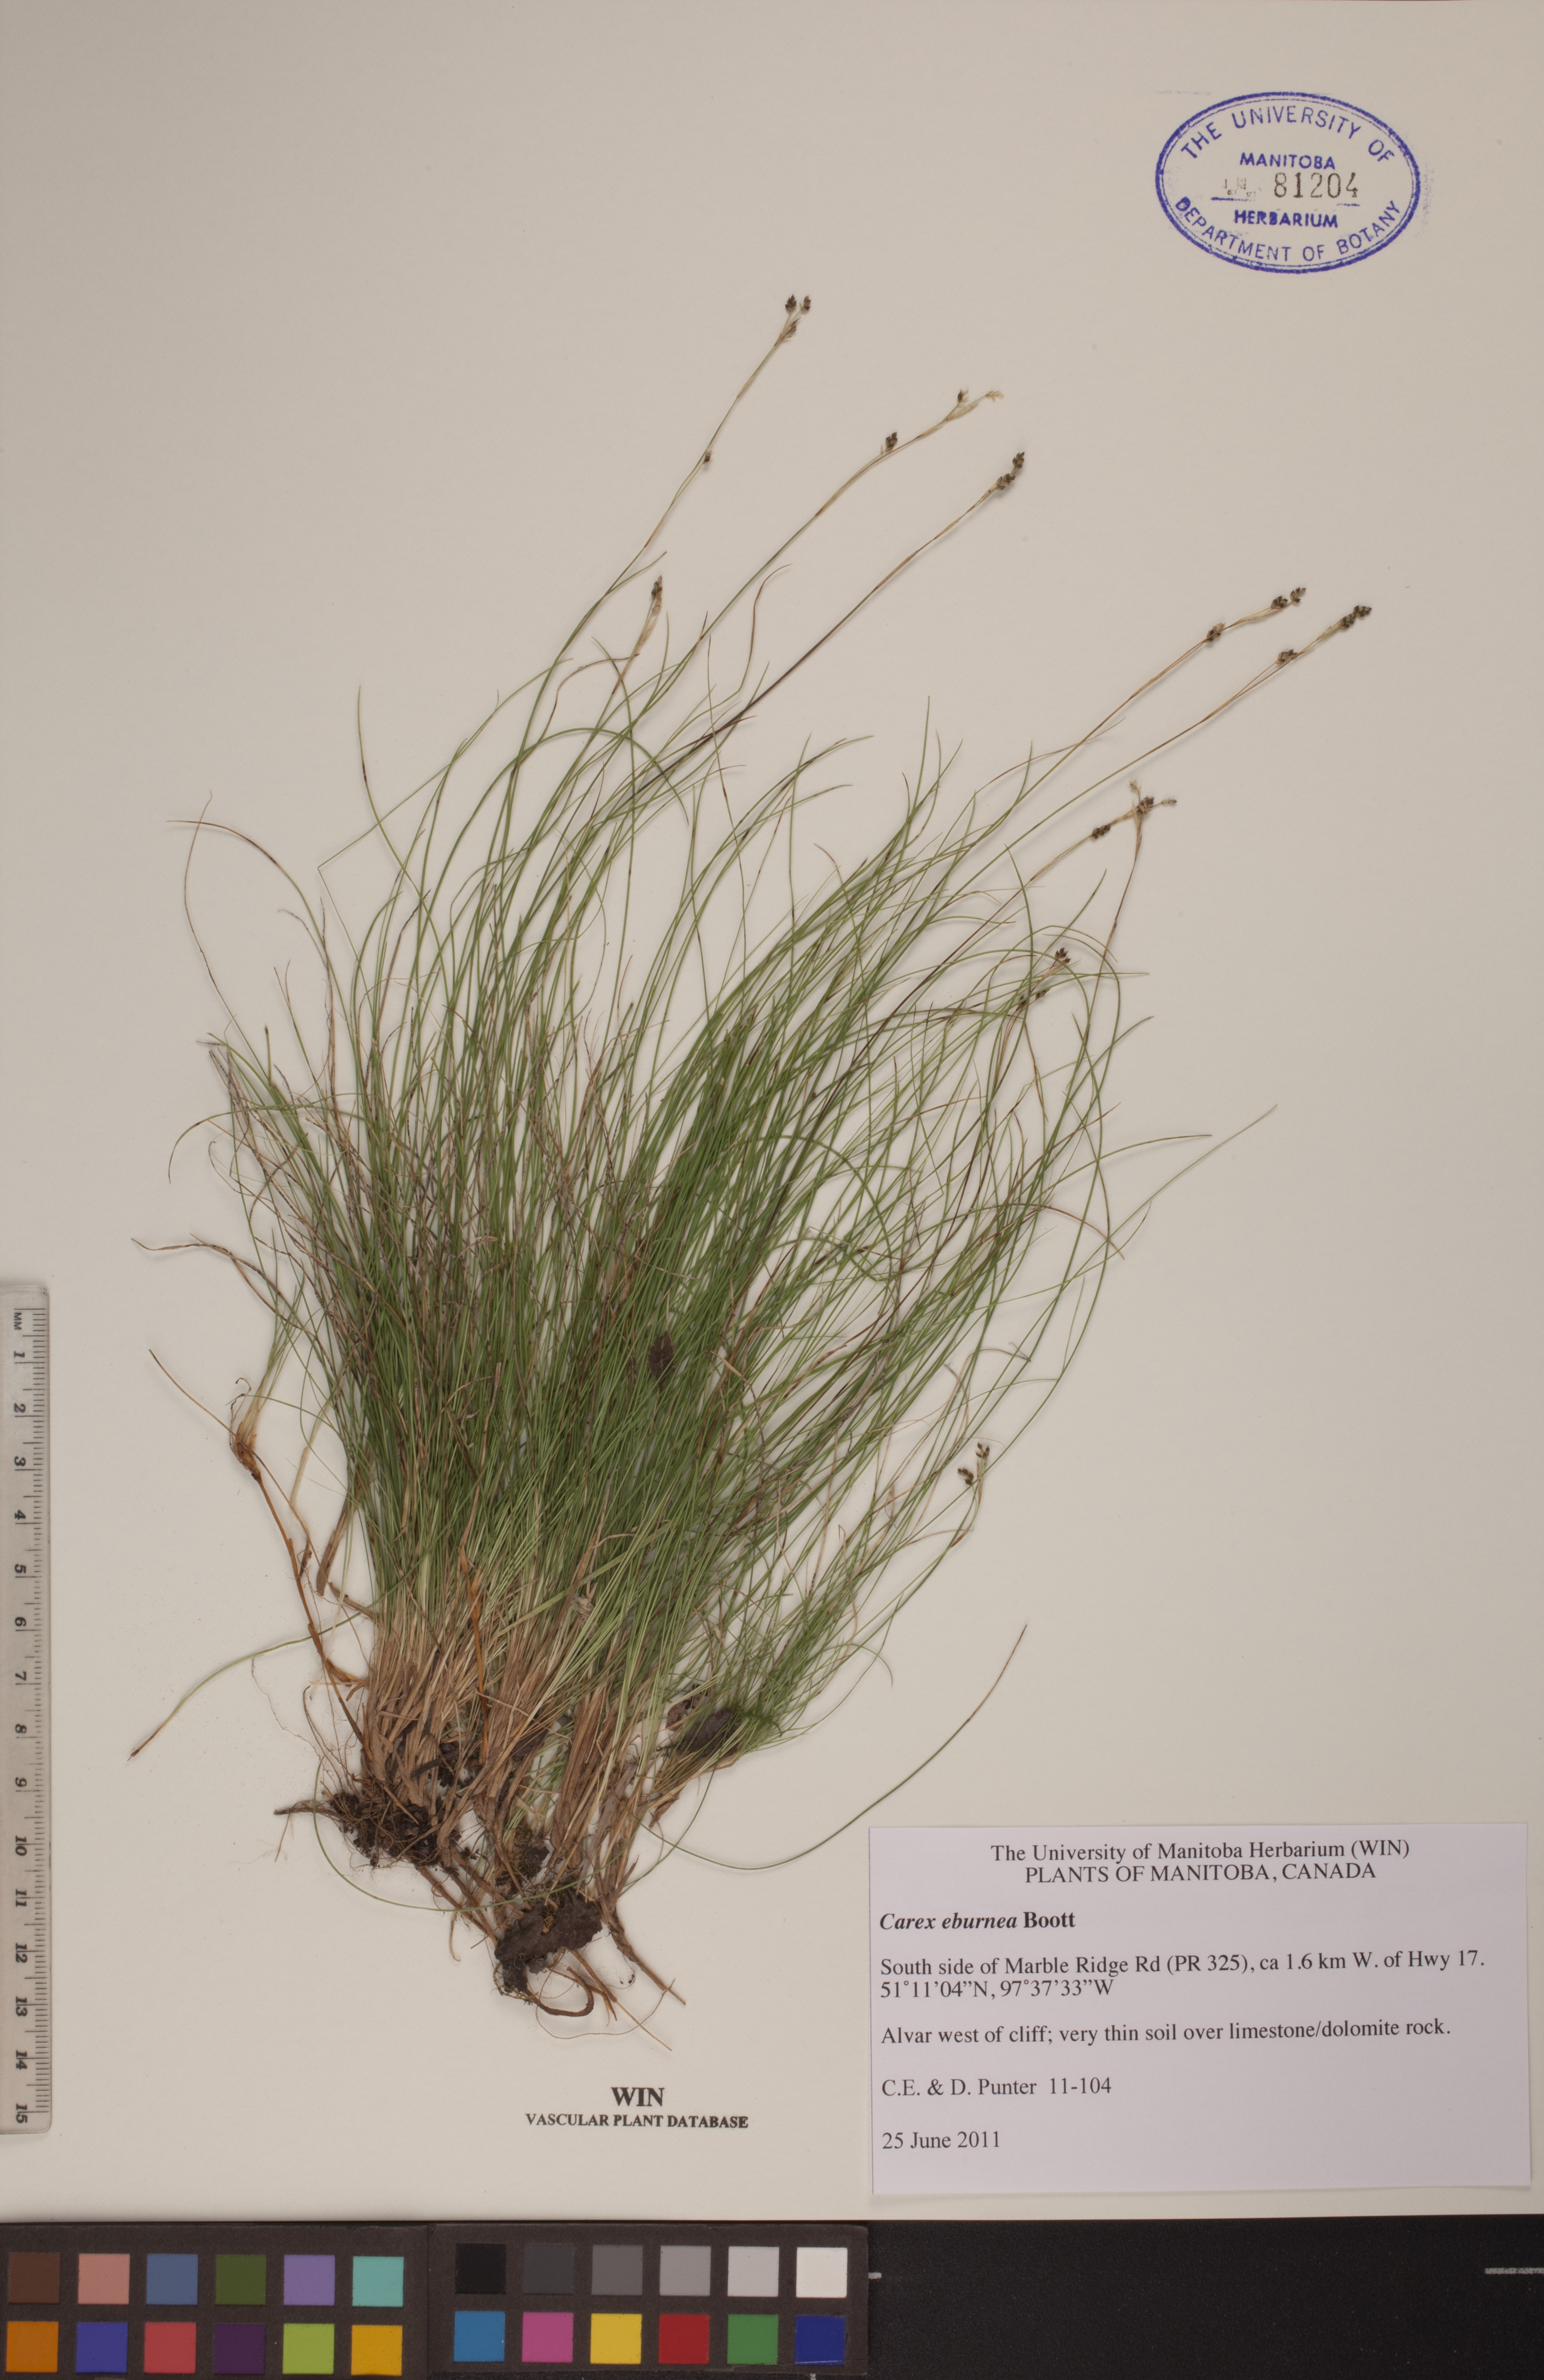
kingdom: Plantae
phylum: Tracheophyta
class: Liliopsida
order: Poales
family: Cyperaceae
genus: Carex
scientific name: Carex eburnea
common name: Bristle-leaved sedge
